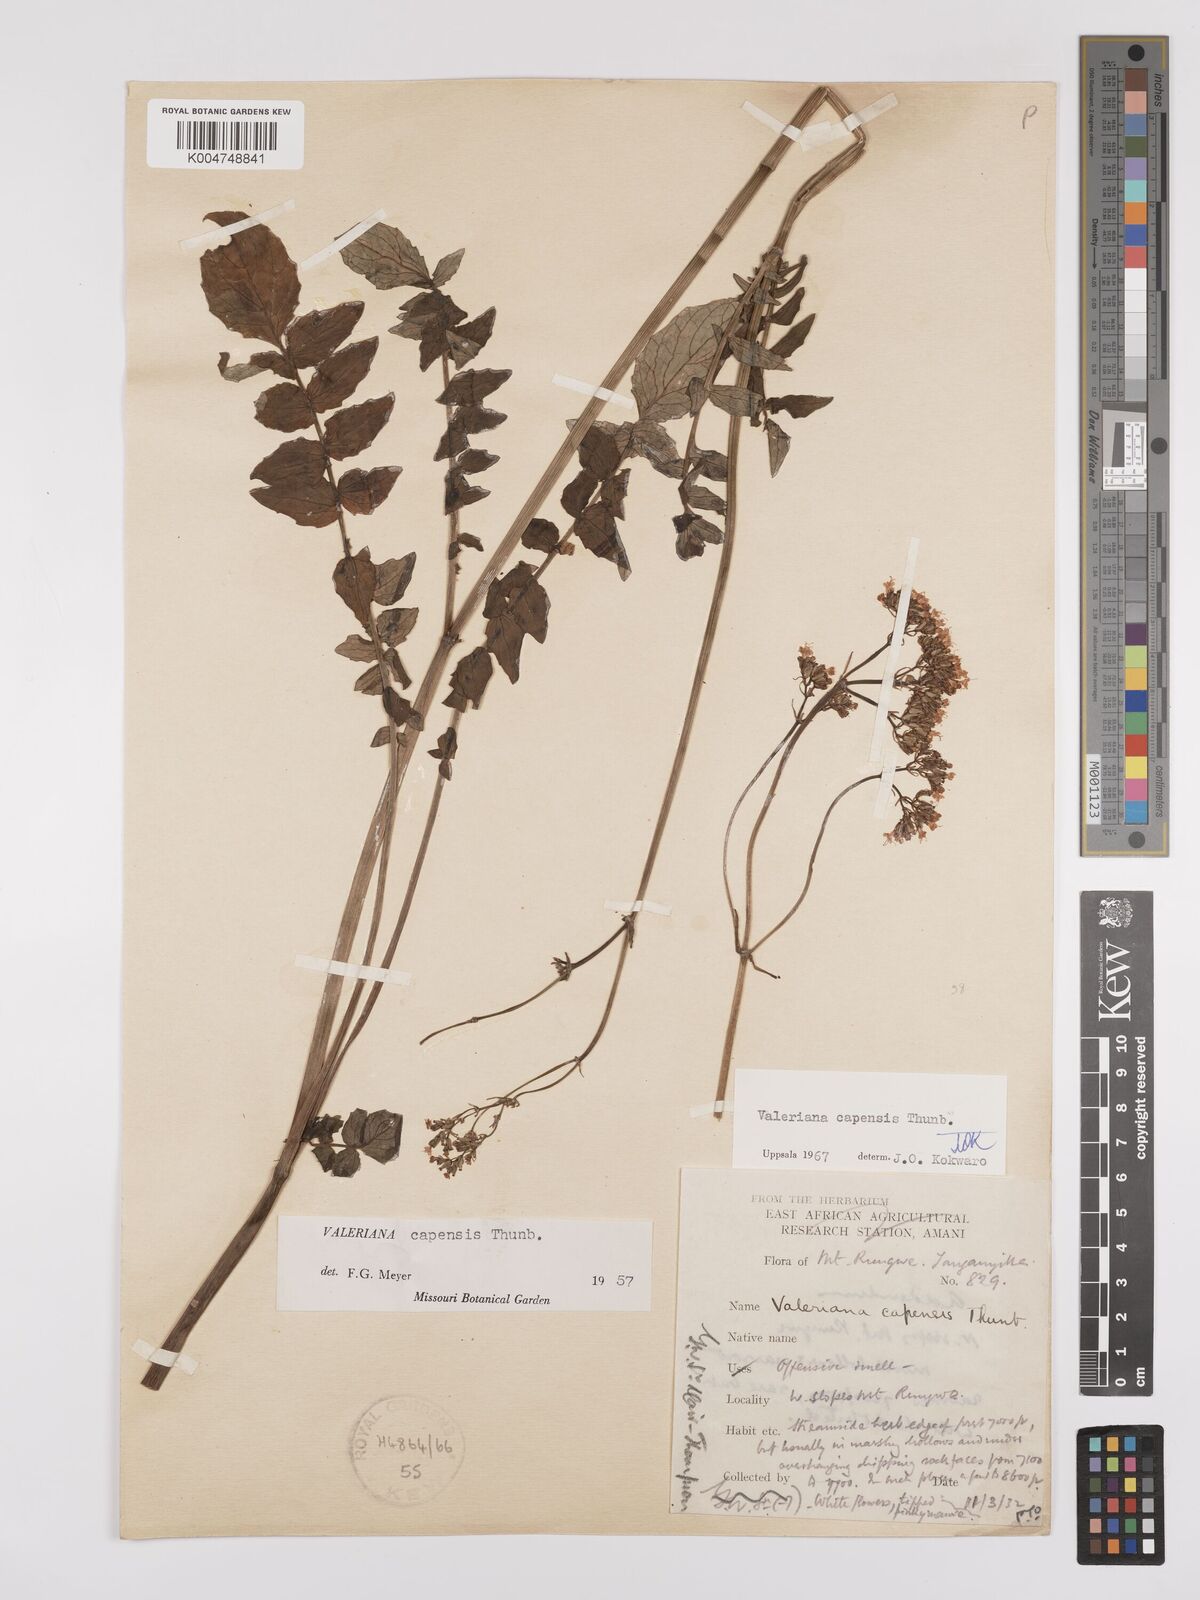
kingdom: Plantae
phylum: Tracheophyta
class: Magnoliopsida
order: Dipsacales
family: Caprifoliaceae
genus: Valeriana
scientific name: Valeriana capensis
